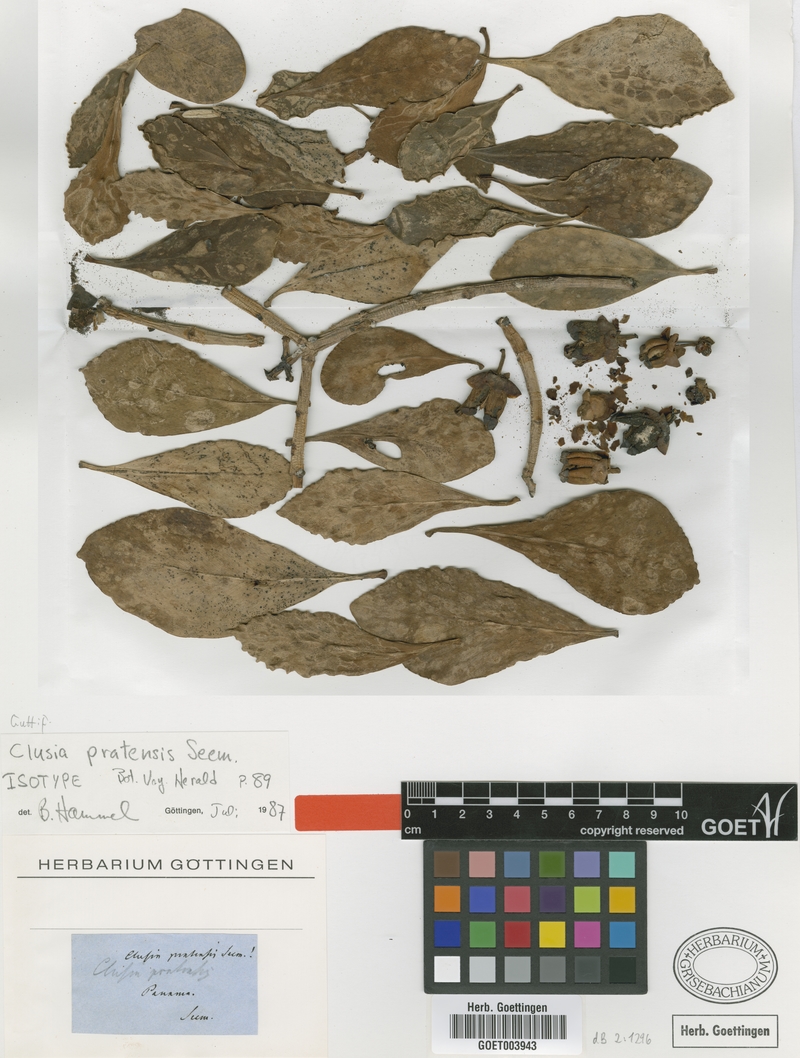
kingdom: Plantae
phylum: Tracheophyta
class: Magnoliopsida
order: Malpighiales
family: Clusiaceae
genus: Clusia
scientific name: Clusia minor
